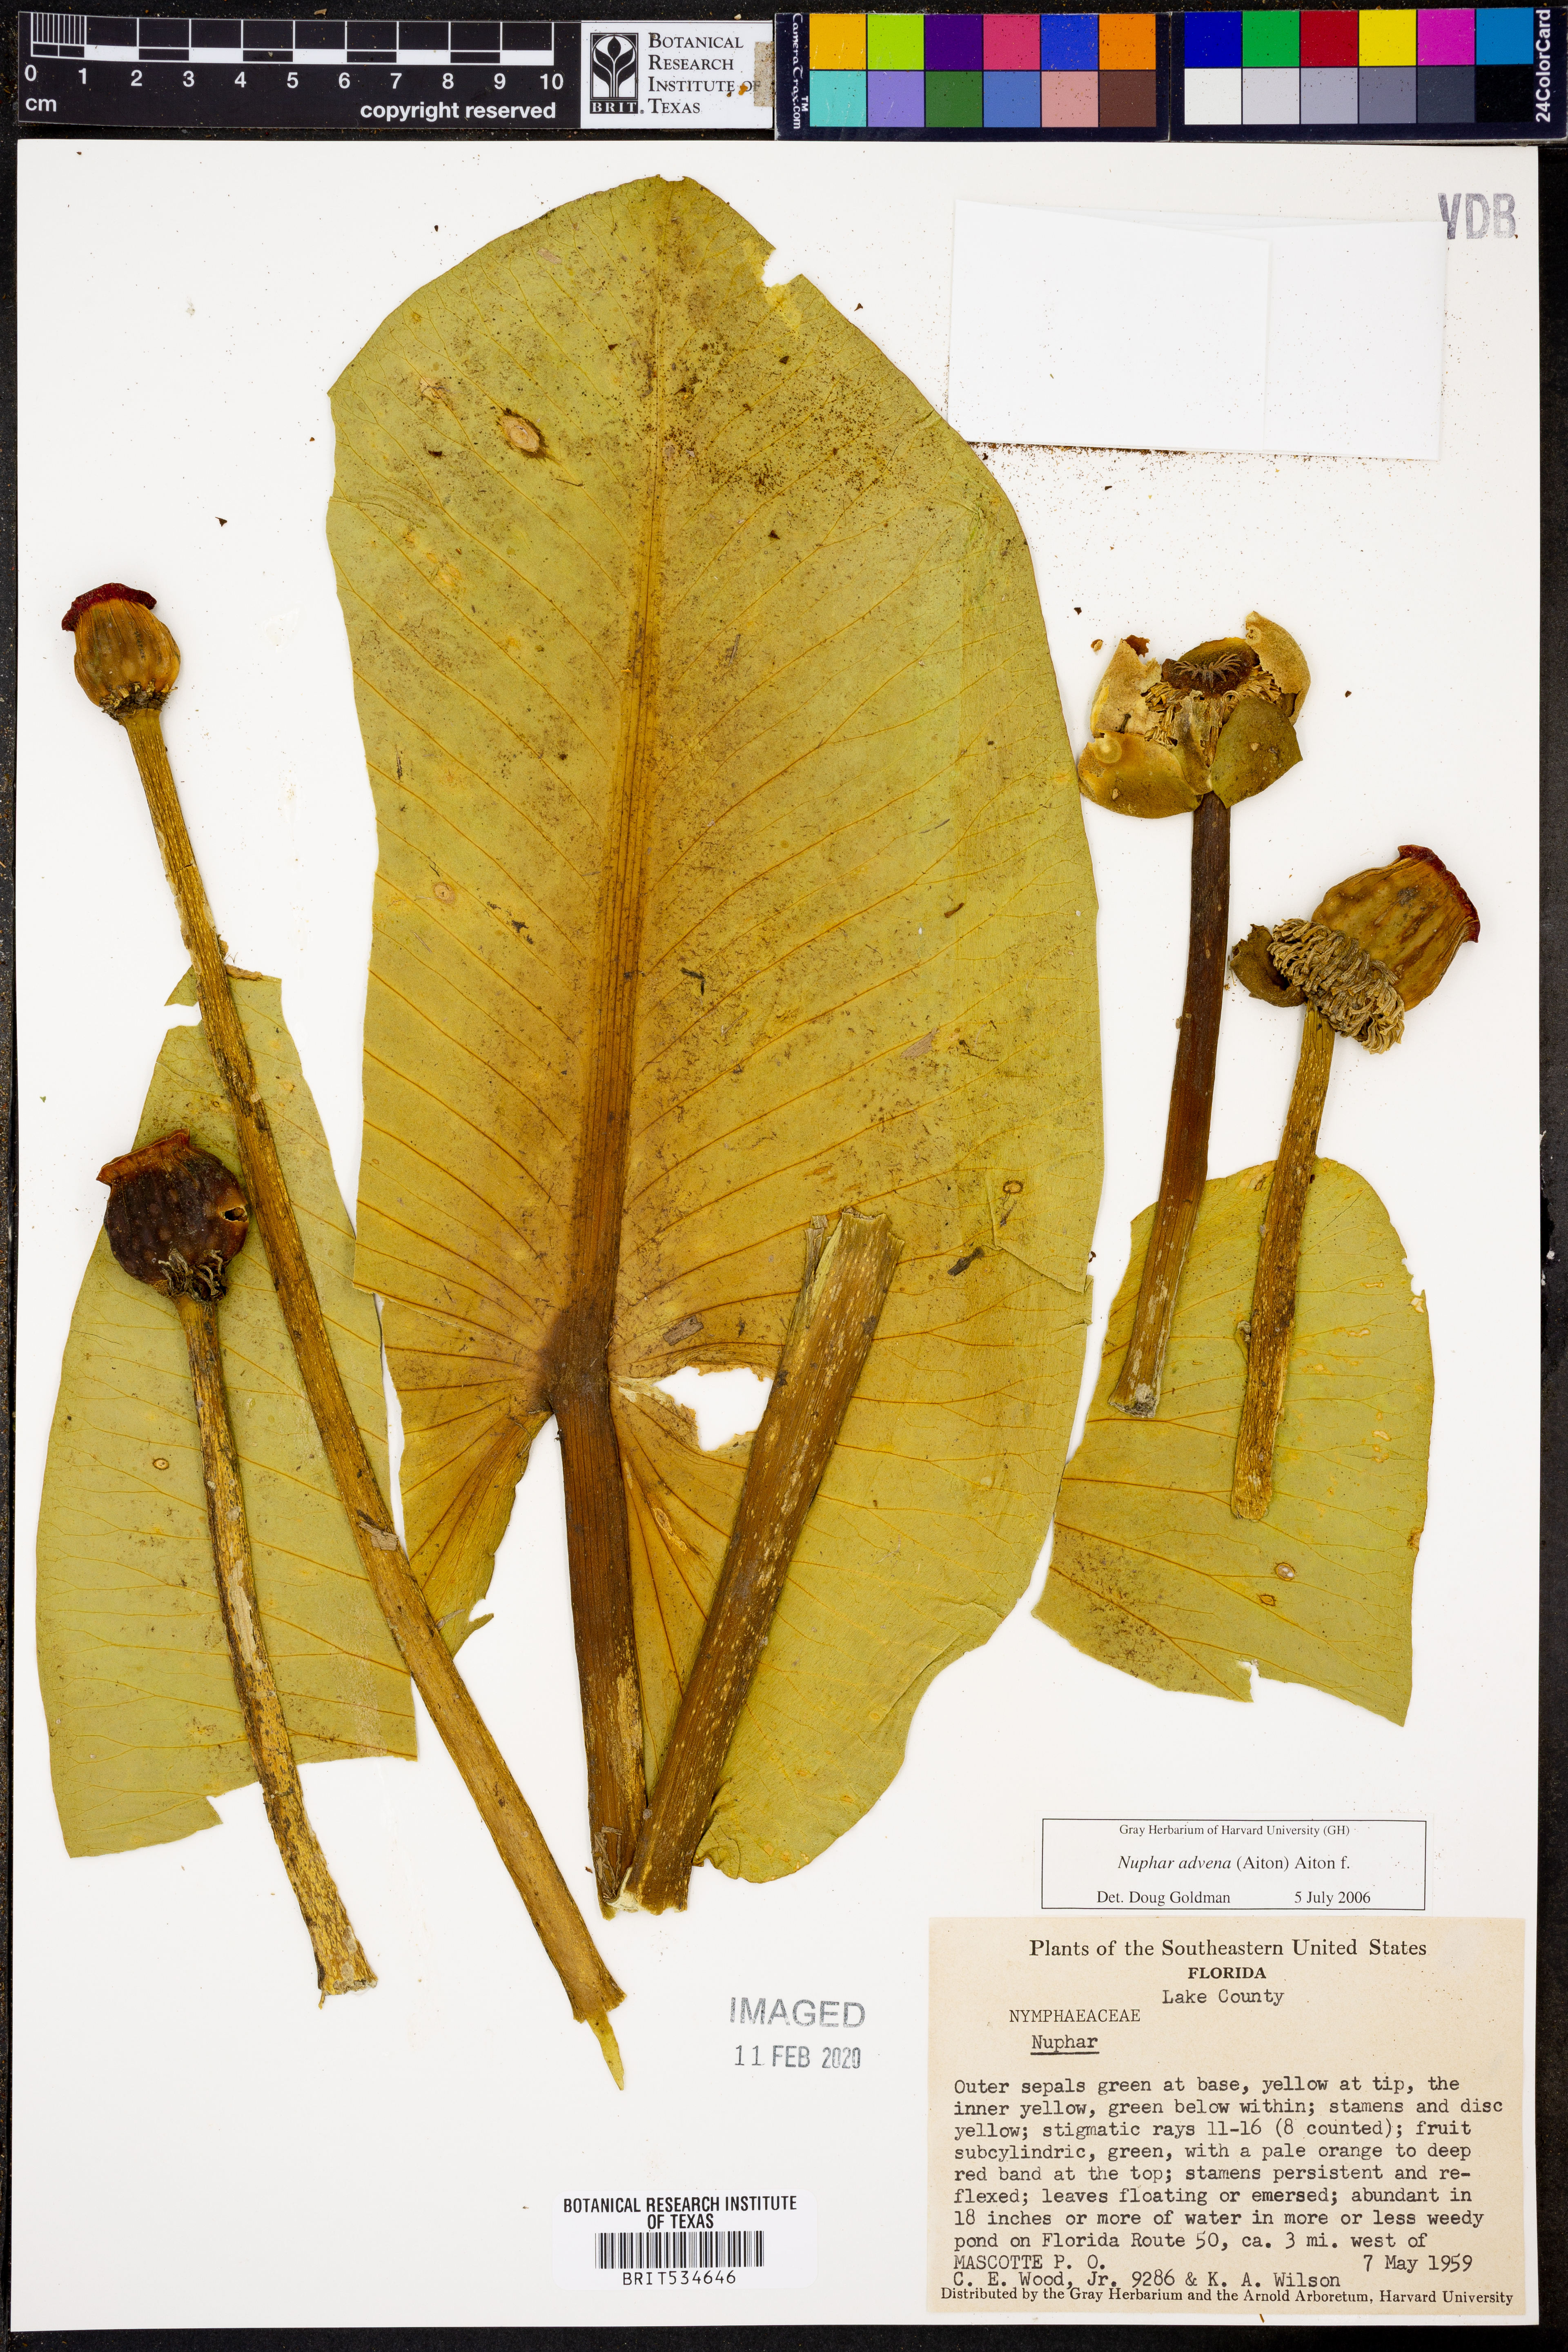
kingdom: Plantae
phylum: Tracheophyta
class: Magnoliopsida
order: Nymphaeales
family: Nymphaeaceae
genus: Nuphar
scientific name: Nuphar advena
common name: Spatter-dock
